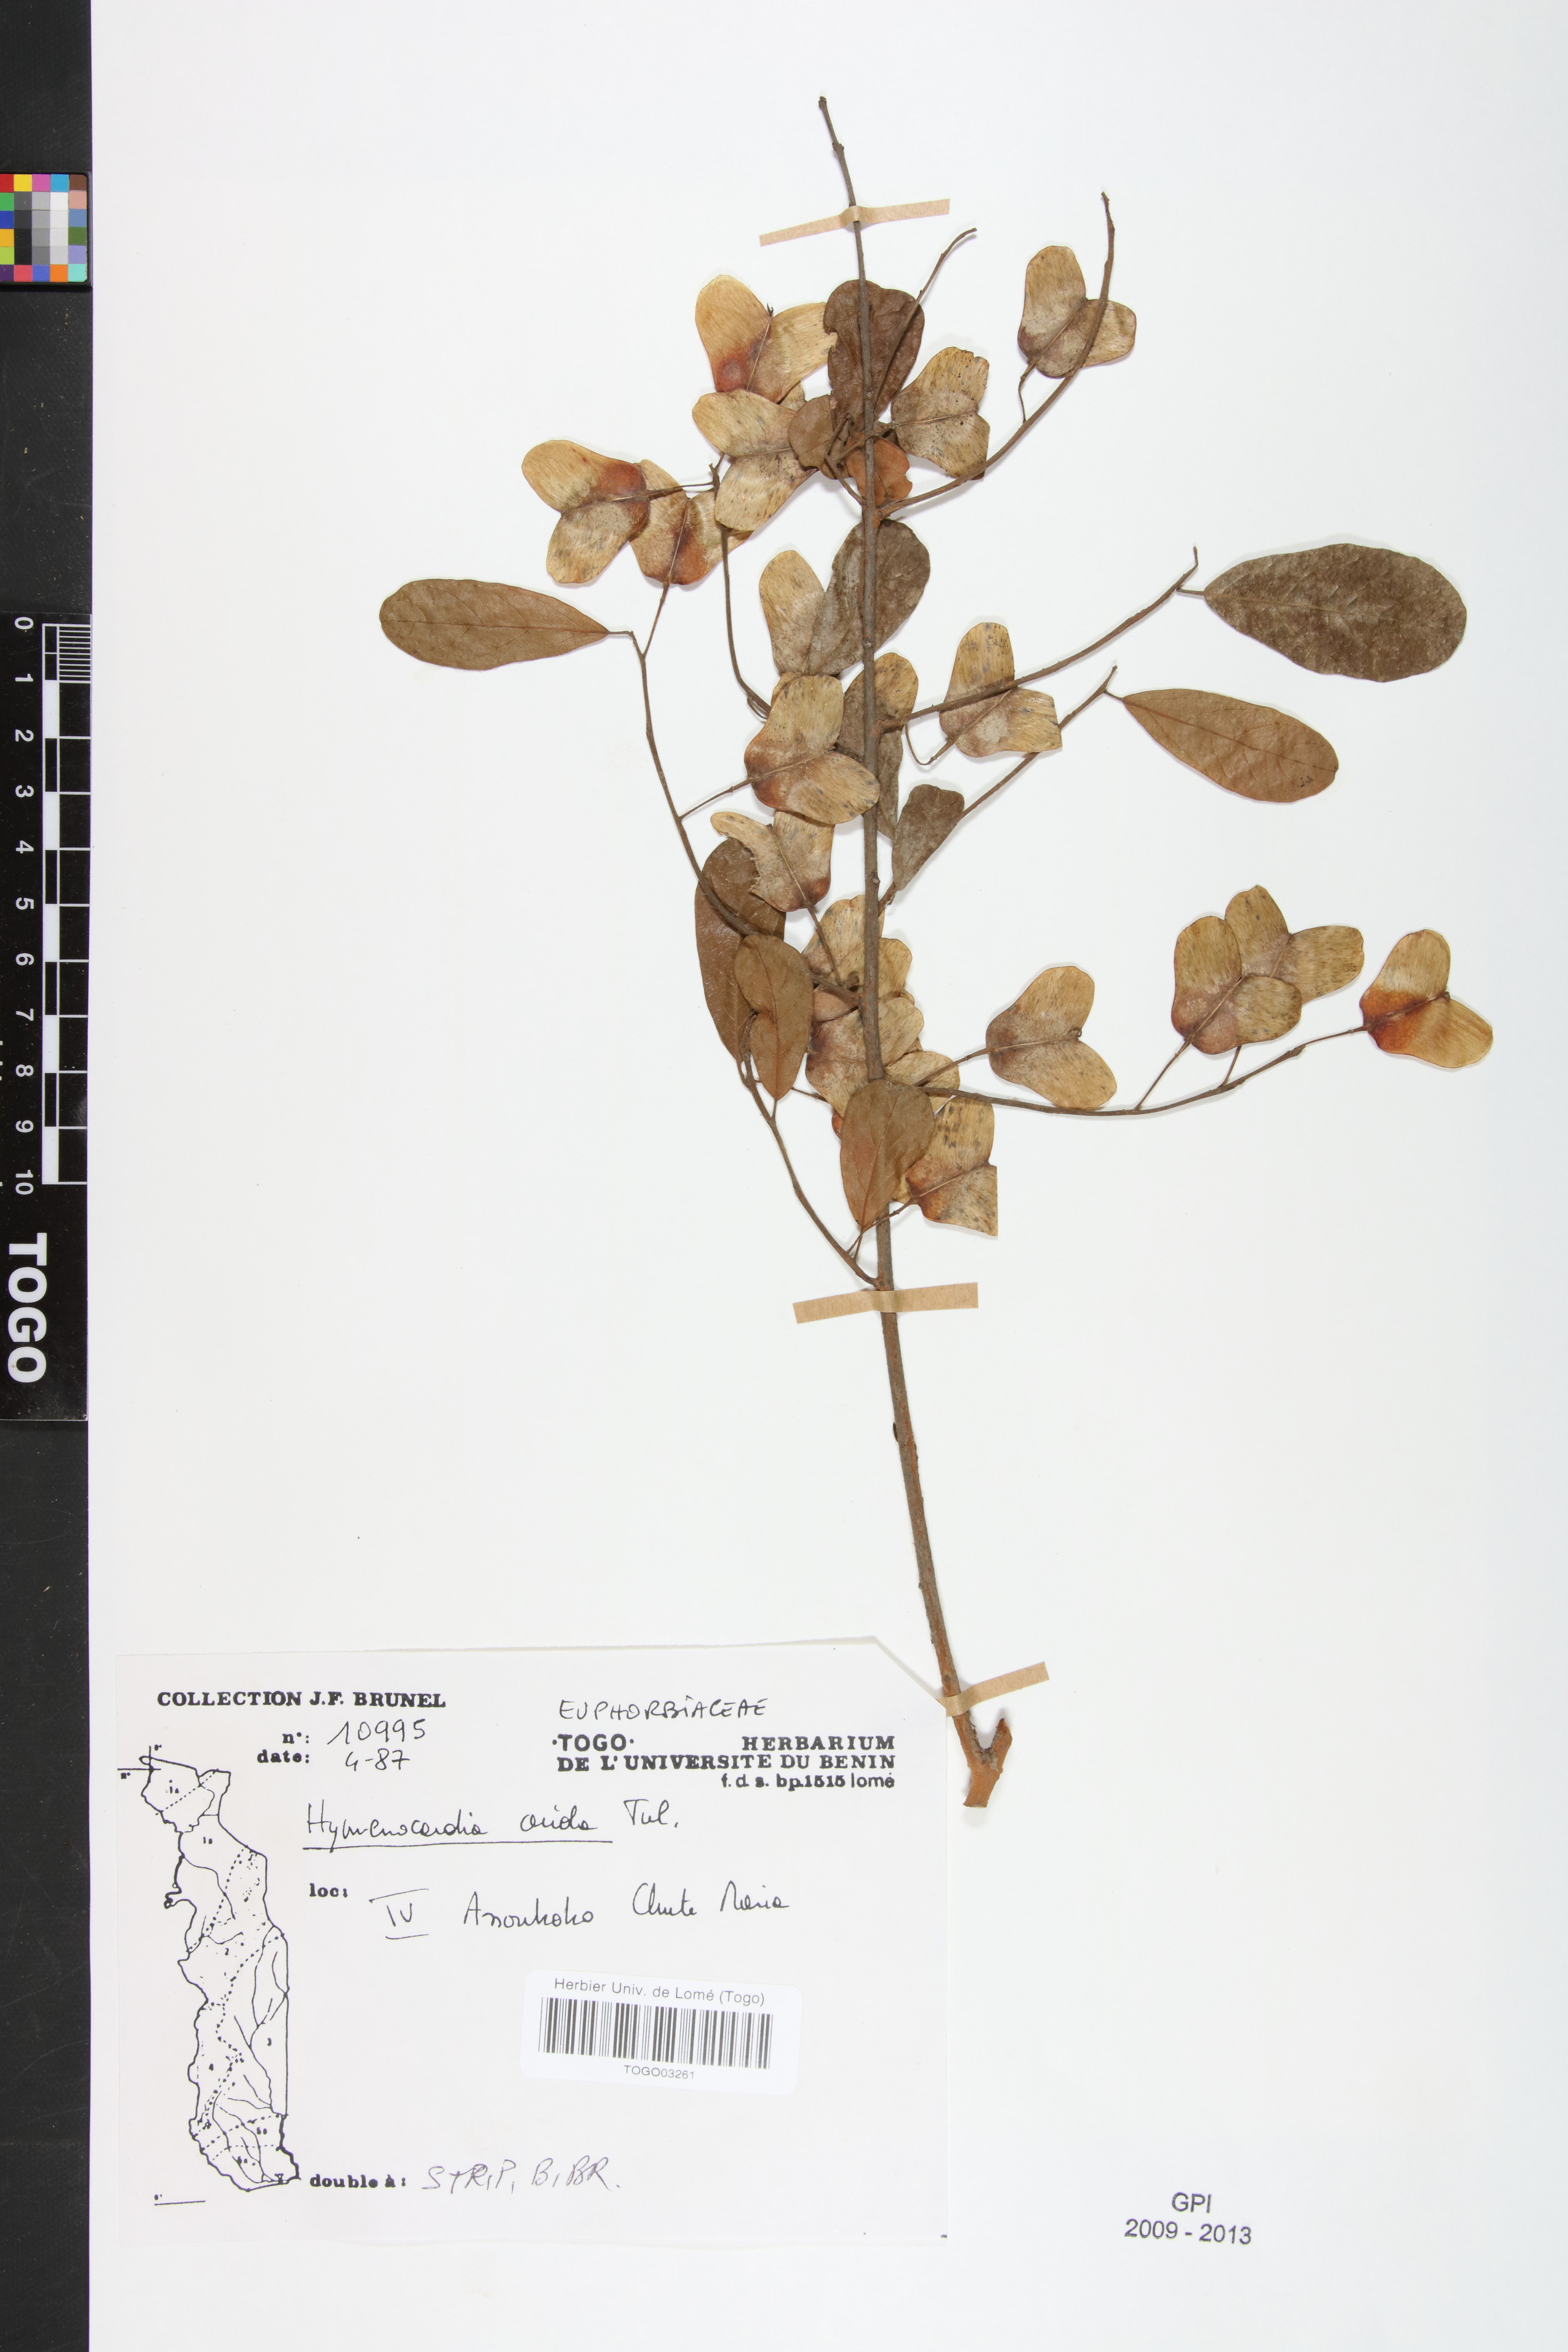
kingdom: Plantae
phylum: Tracheophyta
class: Magnoliopsida
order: Malpighiales
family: Phyllanthaceae
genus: Hymenocardia
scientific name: Hymenocardia acida
